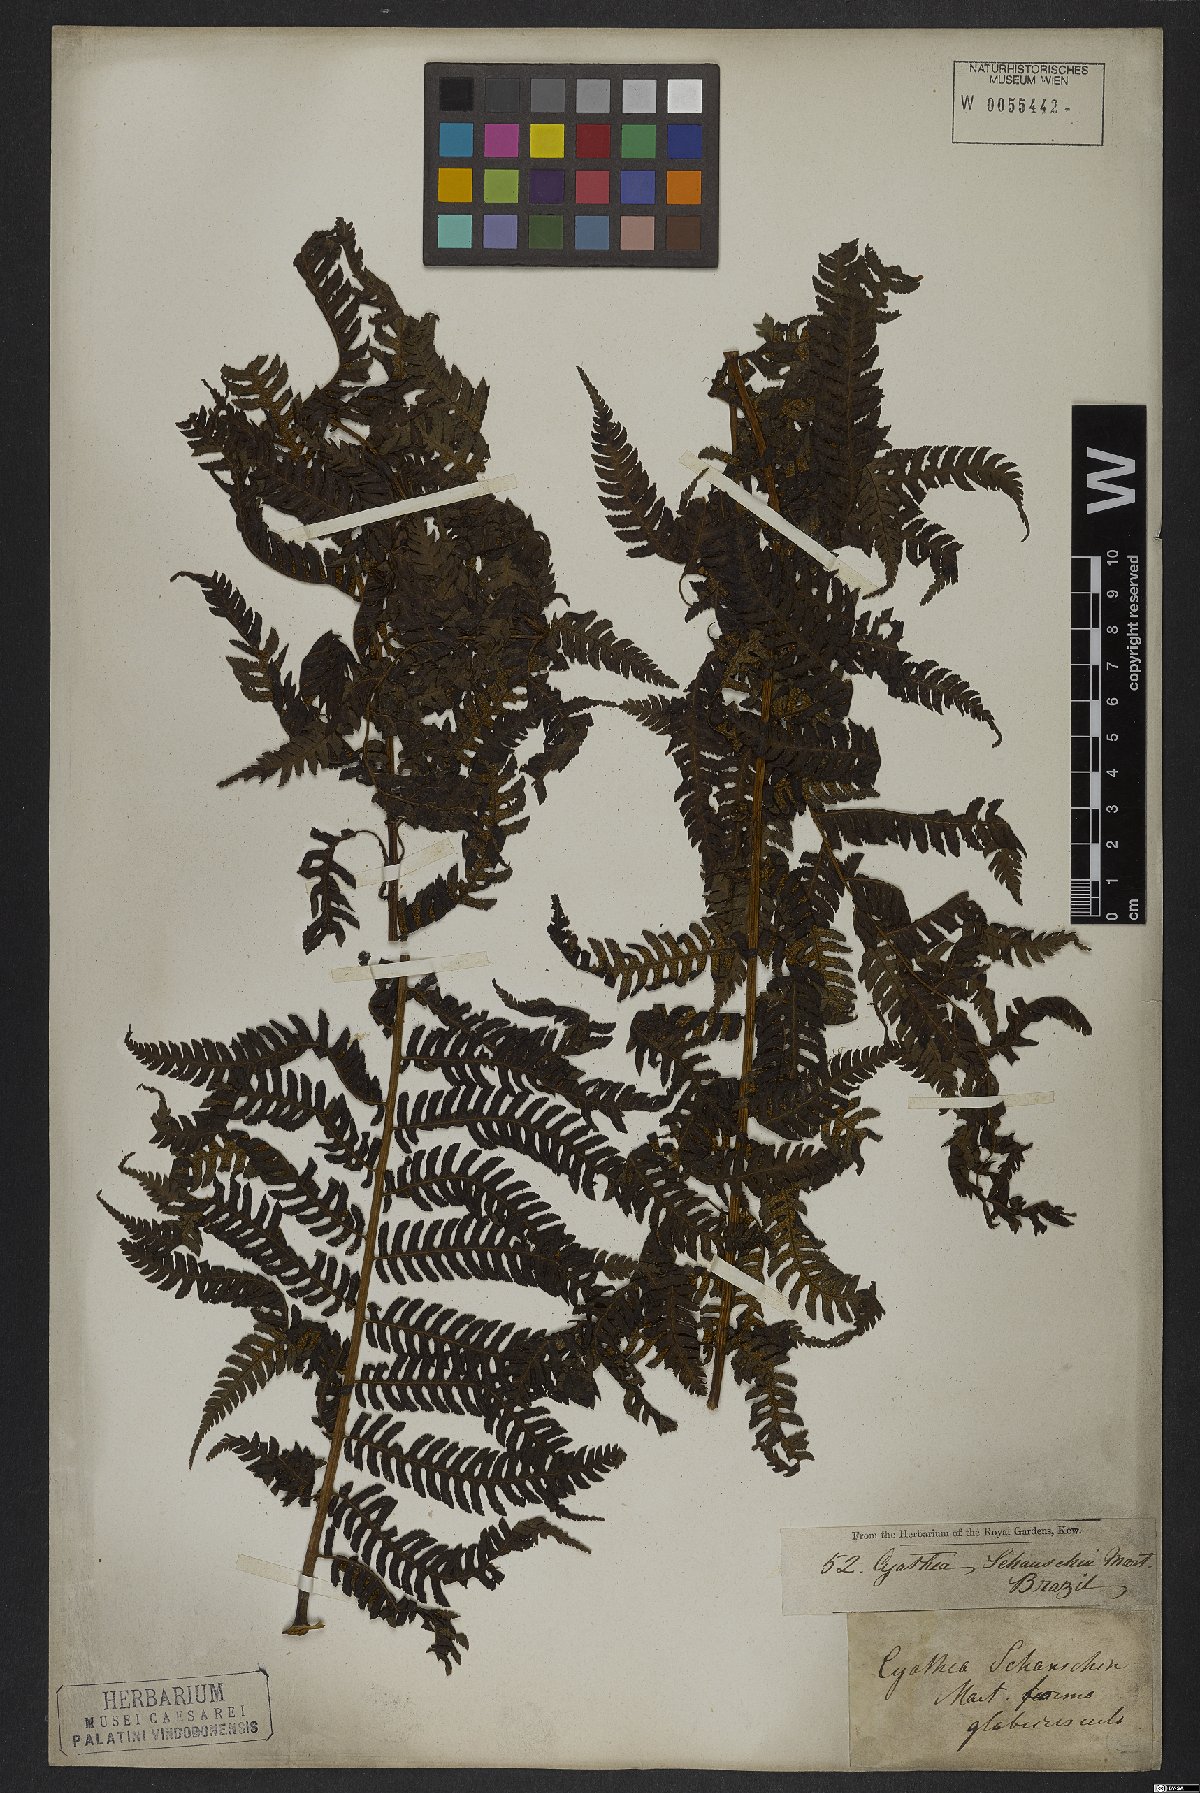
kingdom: Plantae
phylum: Tracheophyta
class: Polypodiopsida
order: Cyatheales
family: Cyatheaceae
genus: Cyathea
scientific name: Cyathea atrovirens
